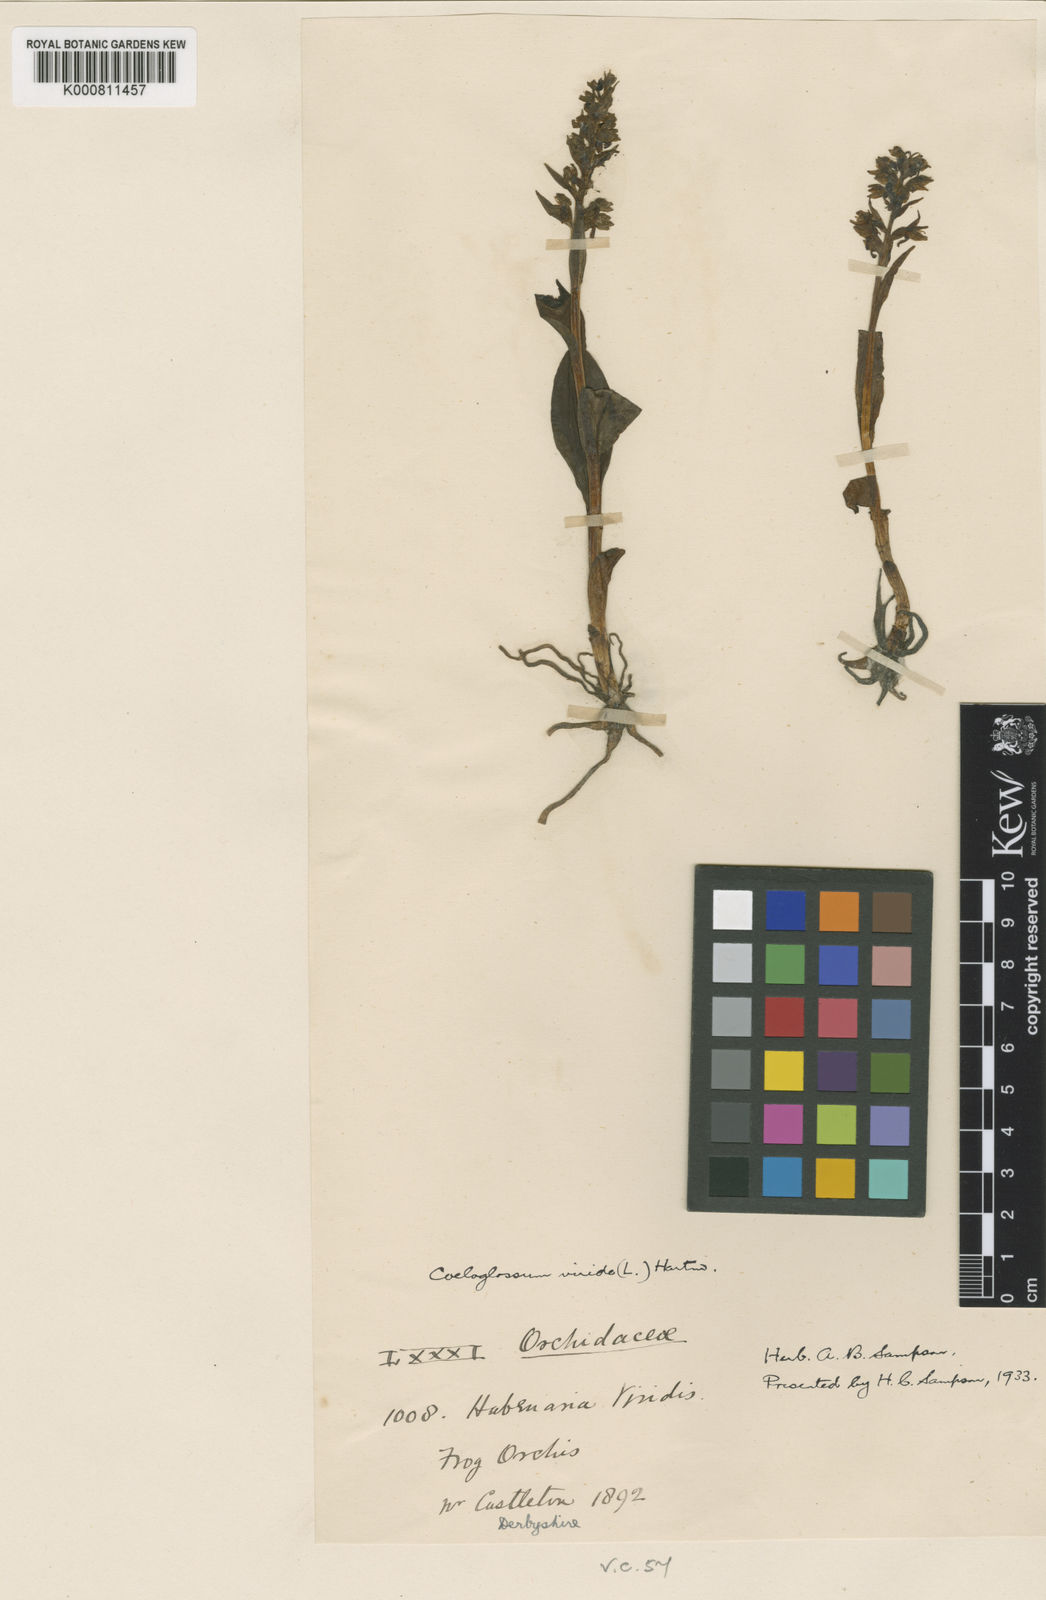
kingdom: Plantae
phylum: Tracheophyta
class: Liliopsida
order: Asparagales
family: Orchidaceae
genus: Dactylorhiza
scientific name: Dactylorhiza viridis
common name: Longbract frog orchid
